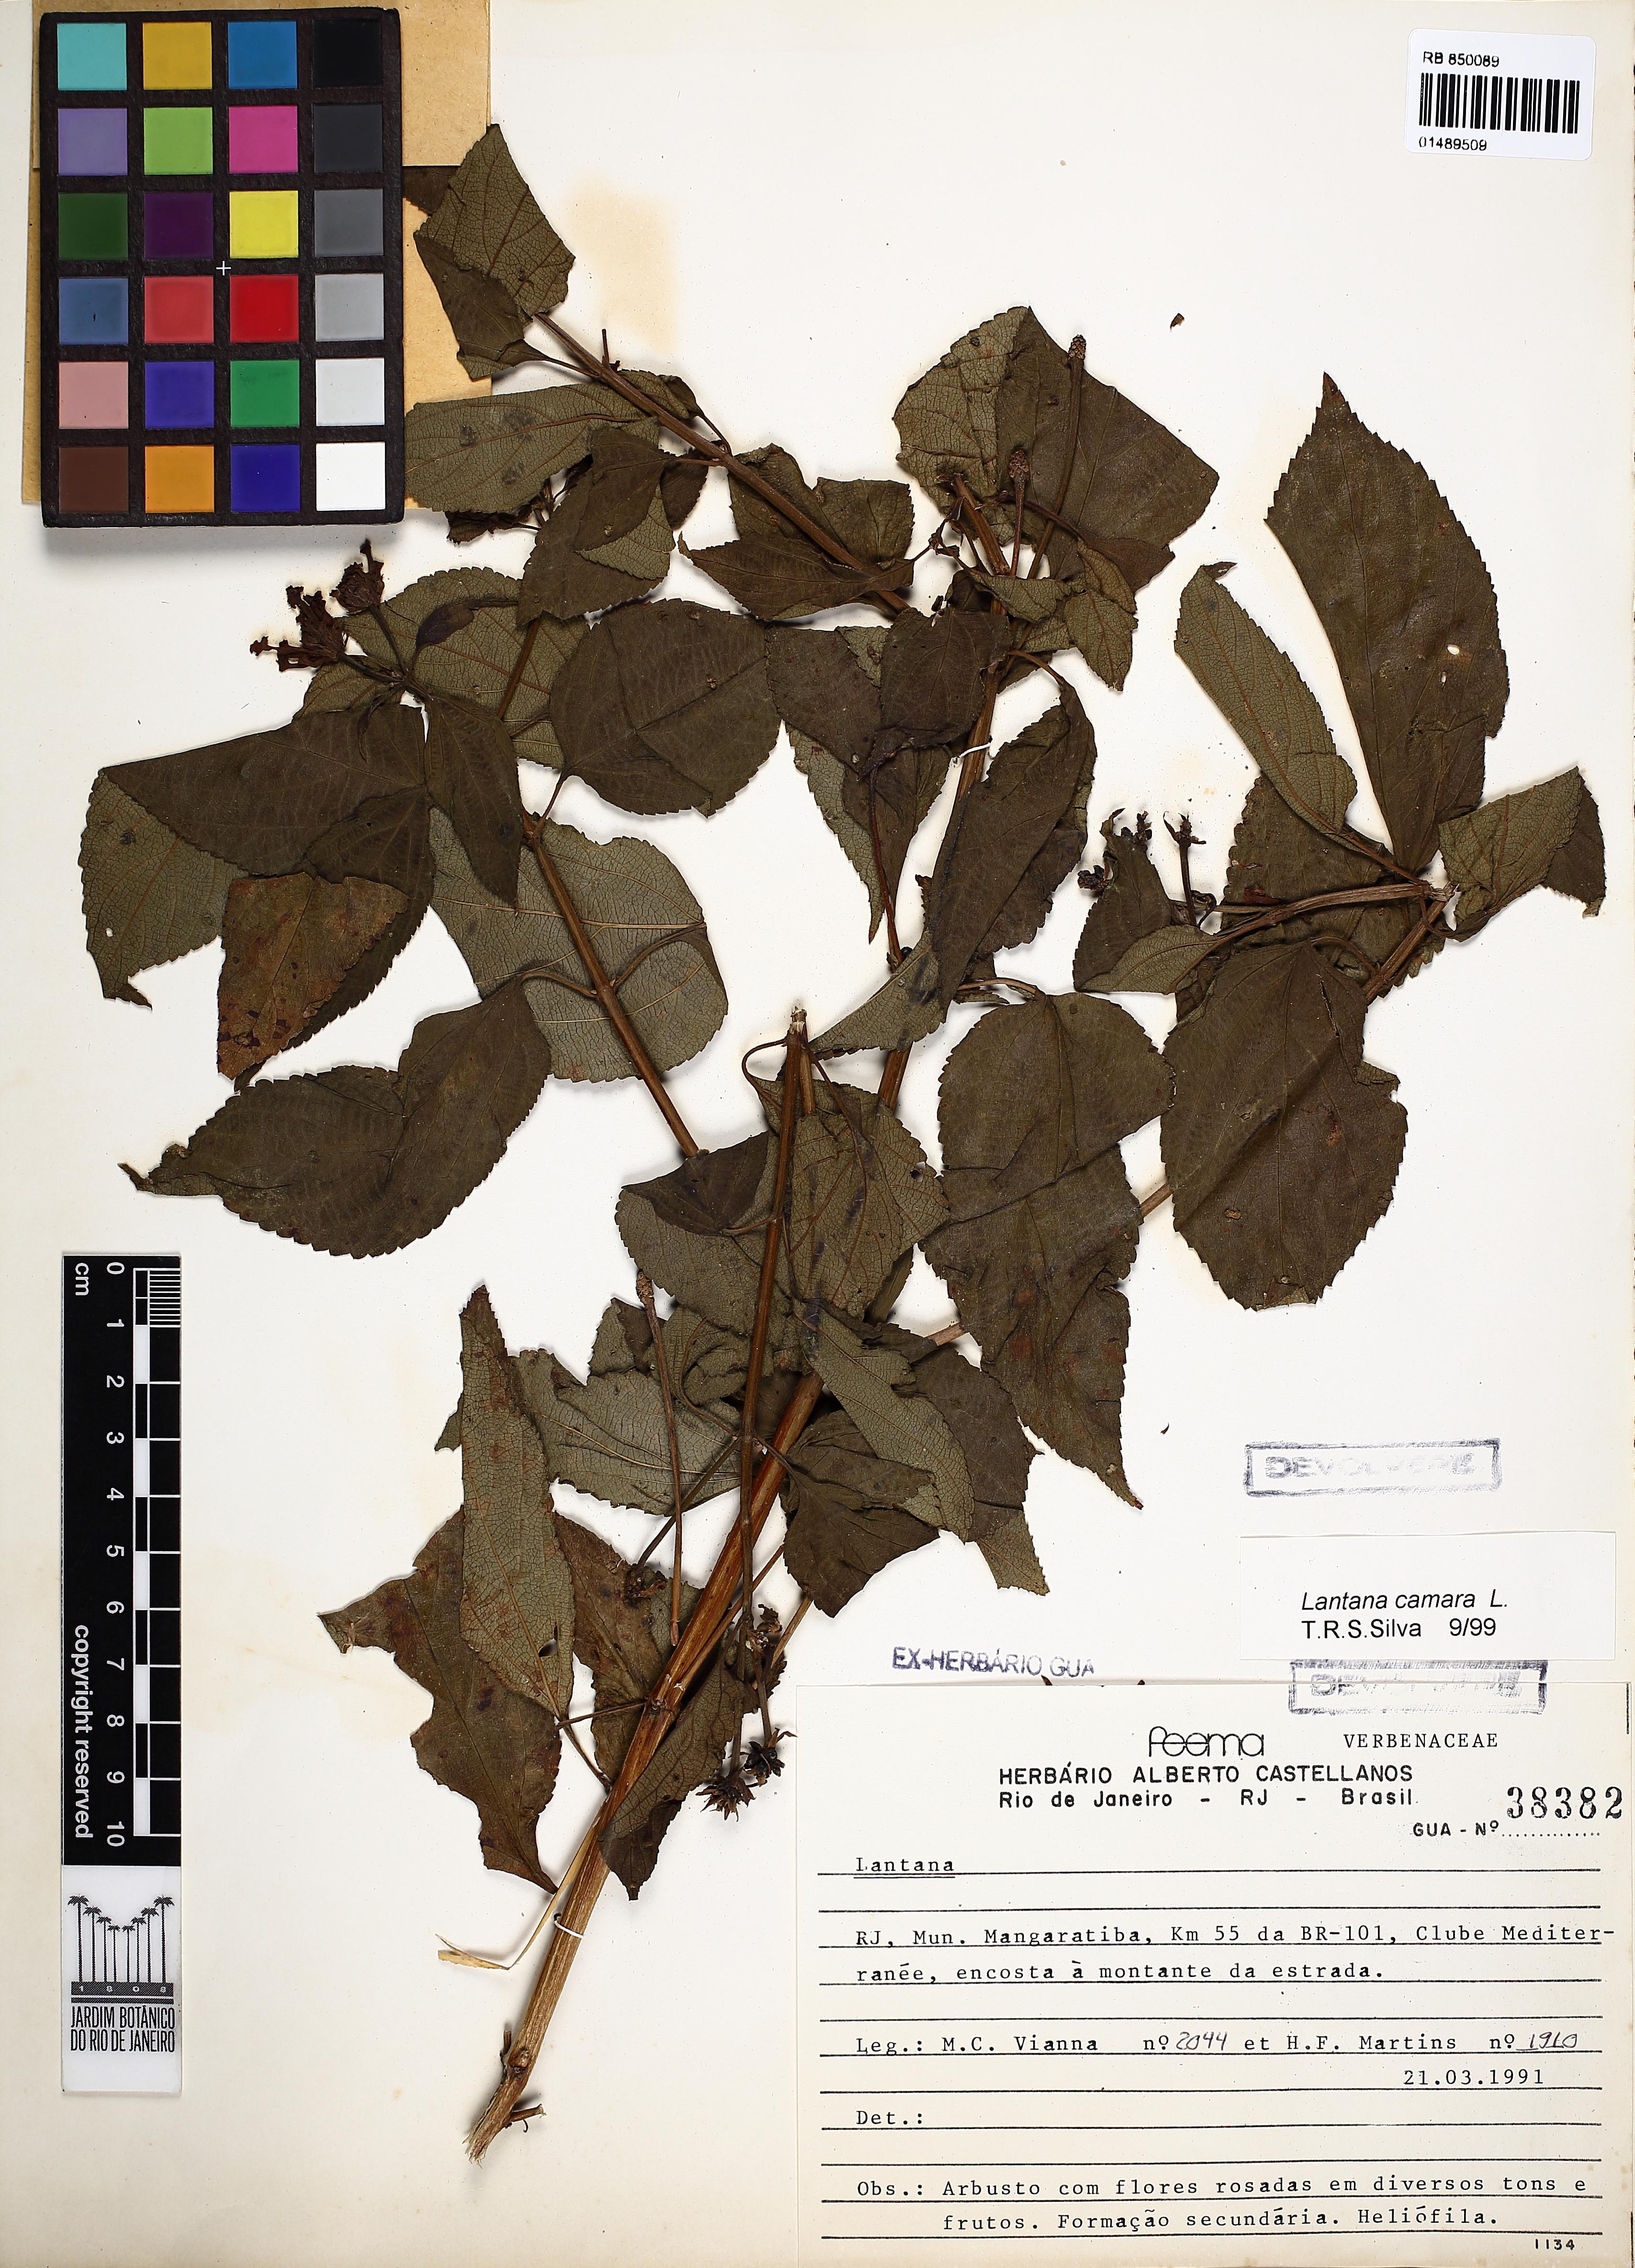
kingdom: Plantae
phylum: Tracheophyta
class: Magnoliopsida
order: Lamiales
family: Verbenaceae
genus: Lantana
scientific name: Lantana camara
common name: Lantana
